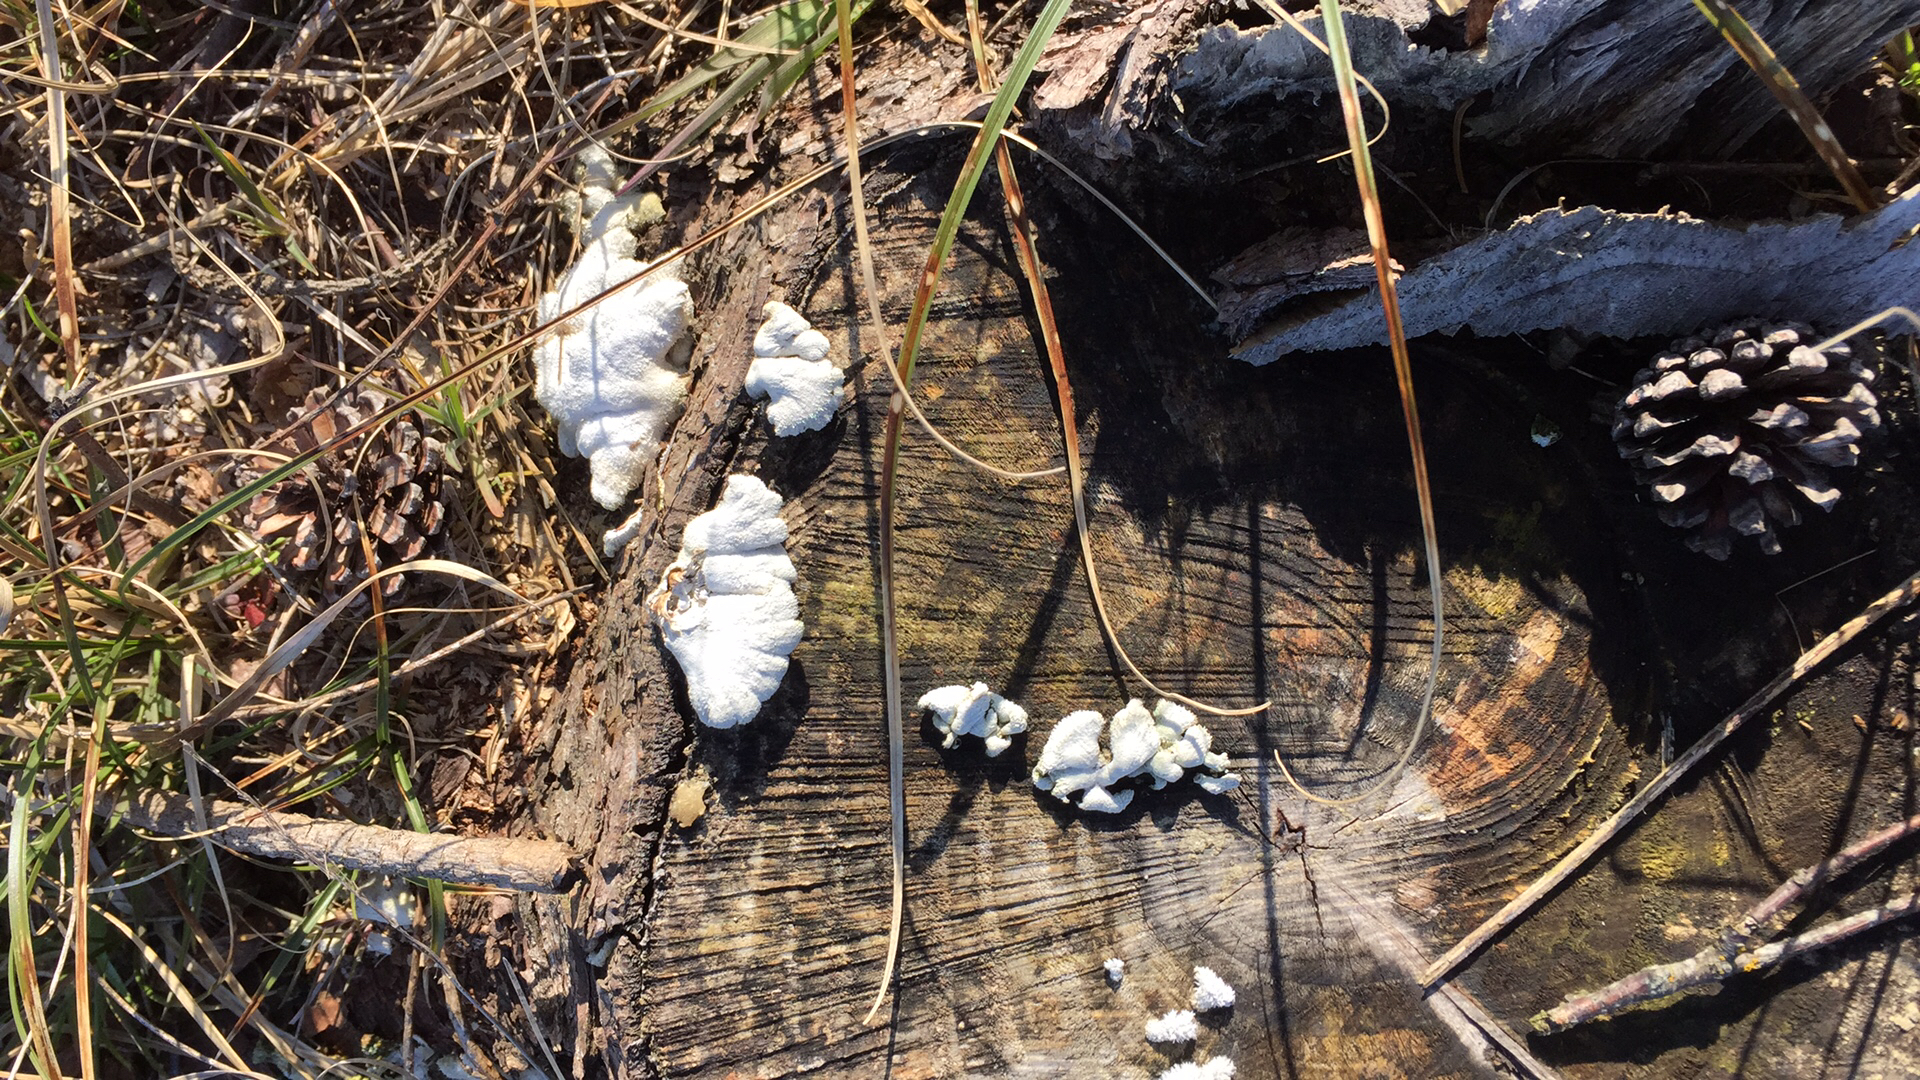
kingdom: Fungi
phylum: Basidiomycota
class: Agaricomycetes
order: Agaricales
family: Schizophyllaceae
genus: Schizophyllum
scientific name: Schizophyllum commune
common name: kløvblad
